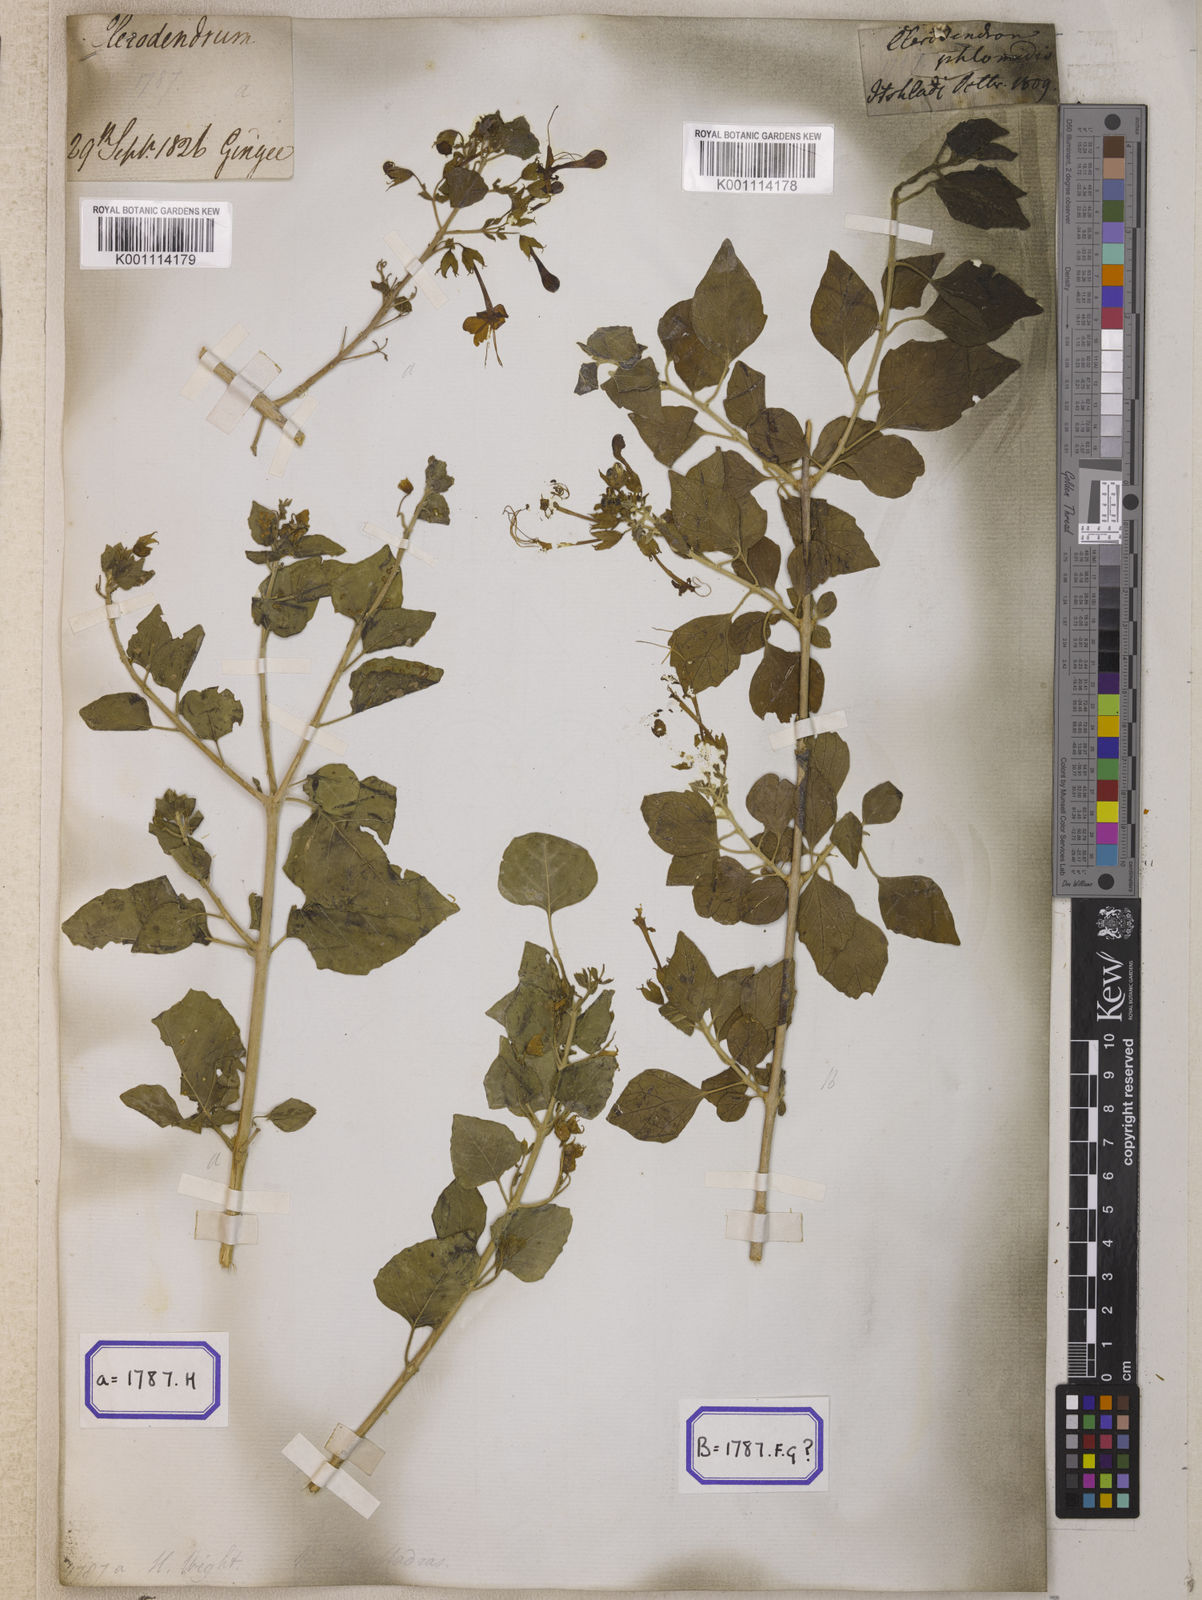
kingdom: Plantae
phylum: Tracheophyta
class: Magnoliopsida
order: Lamiales
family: Lamiaceae
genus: Clerodendrum
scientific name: Clerodendrum
